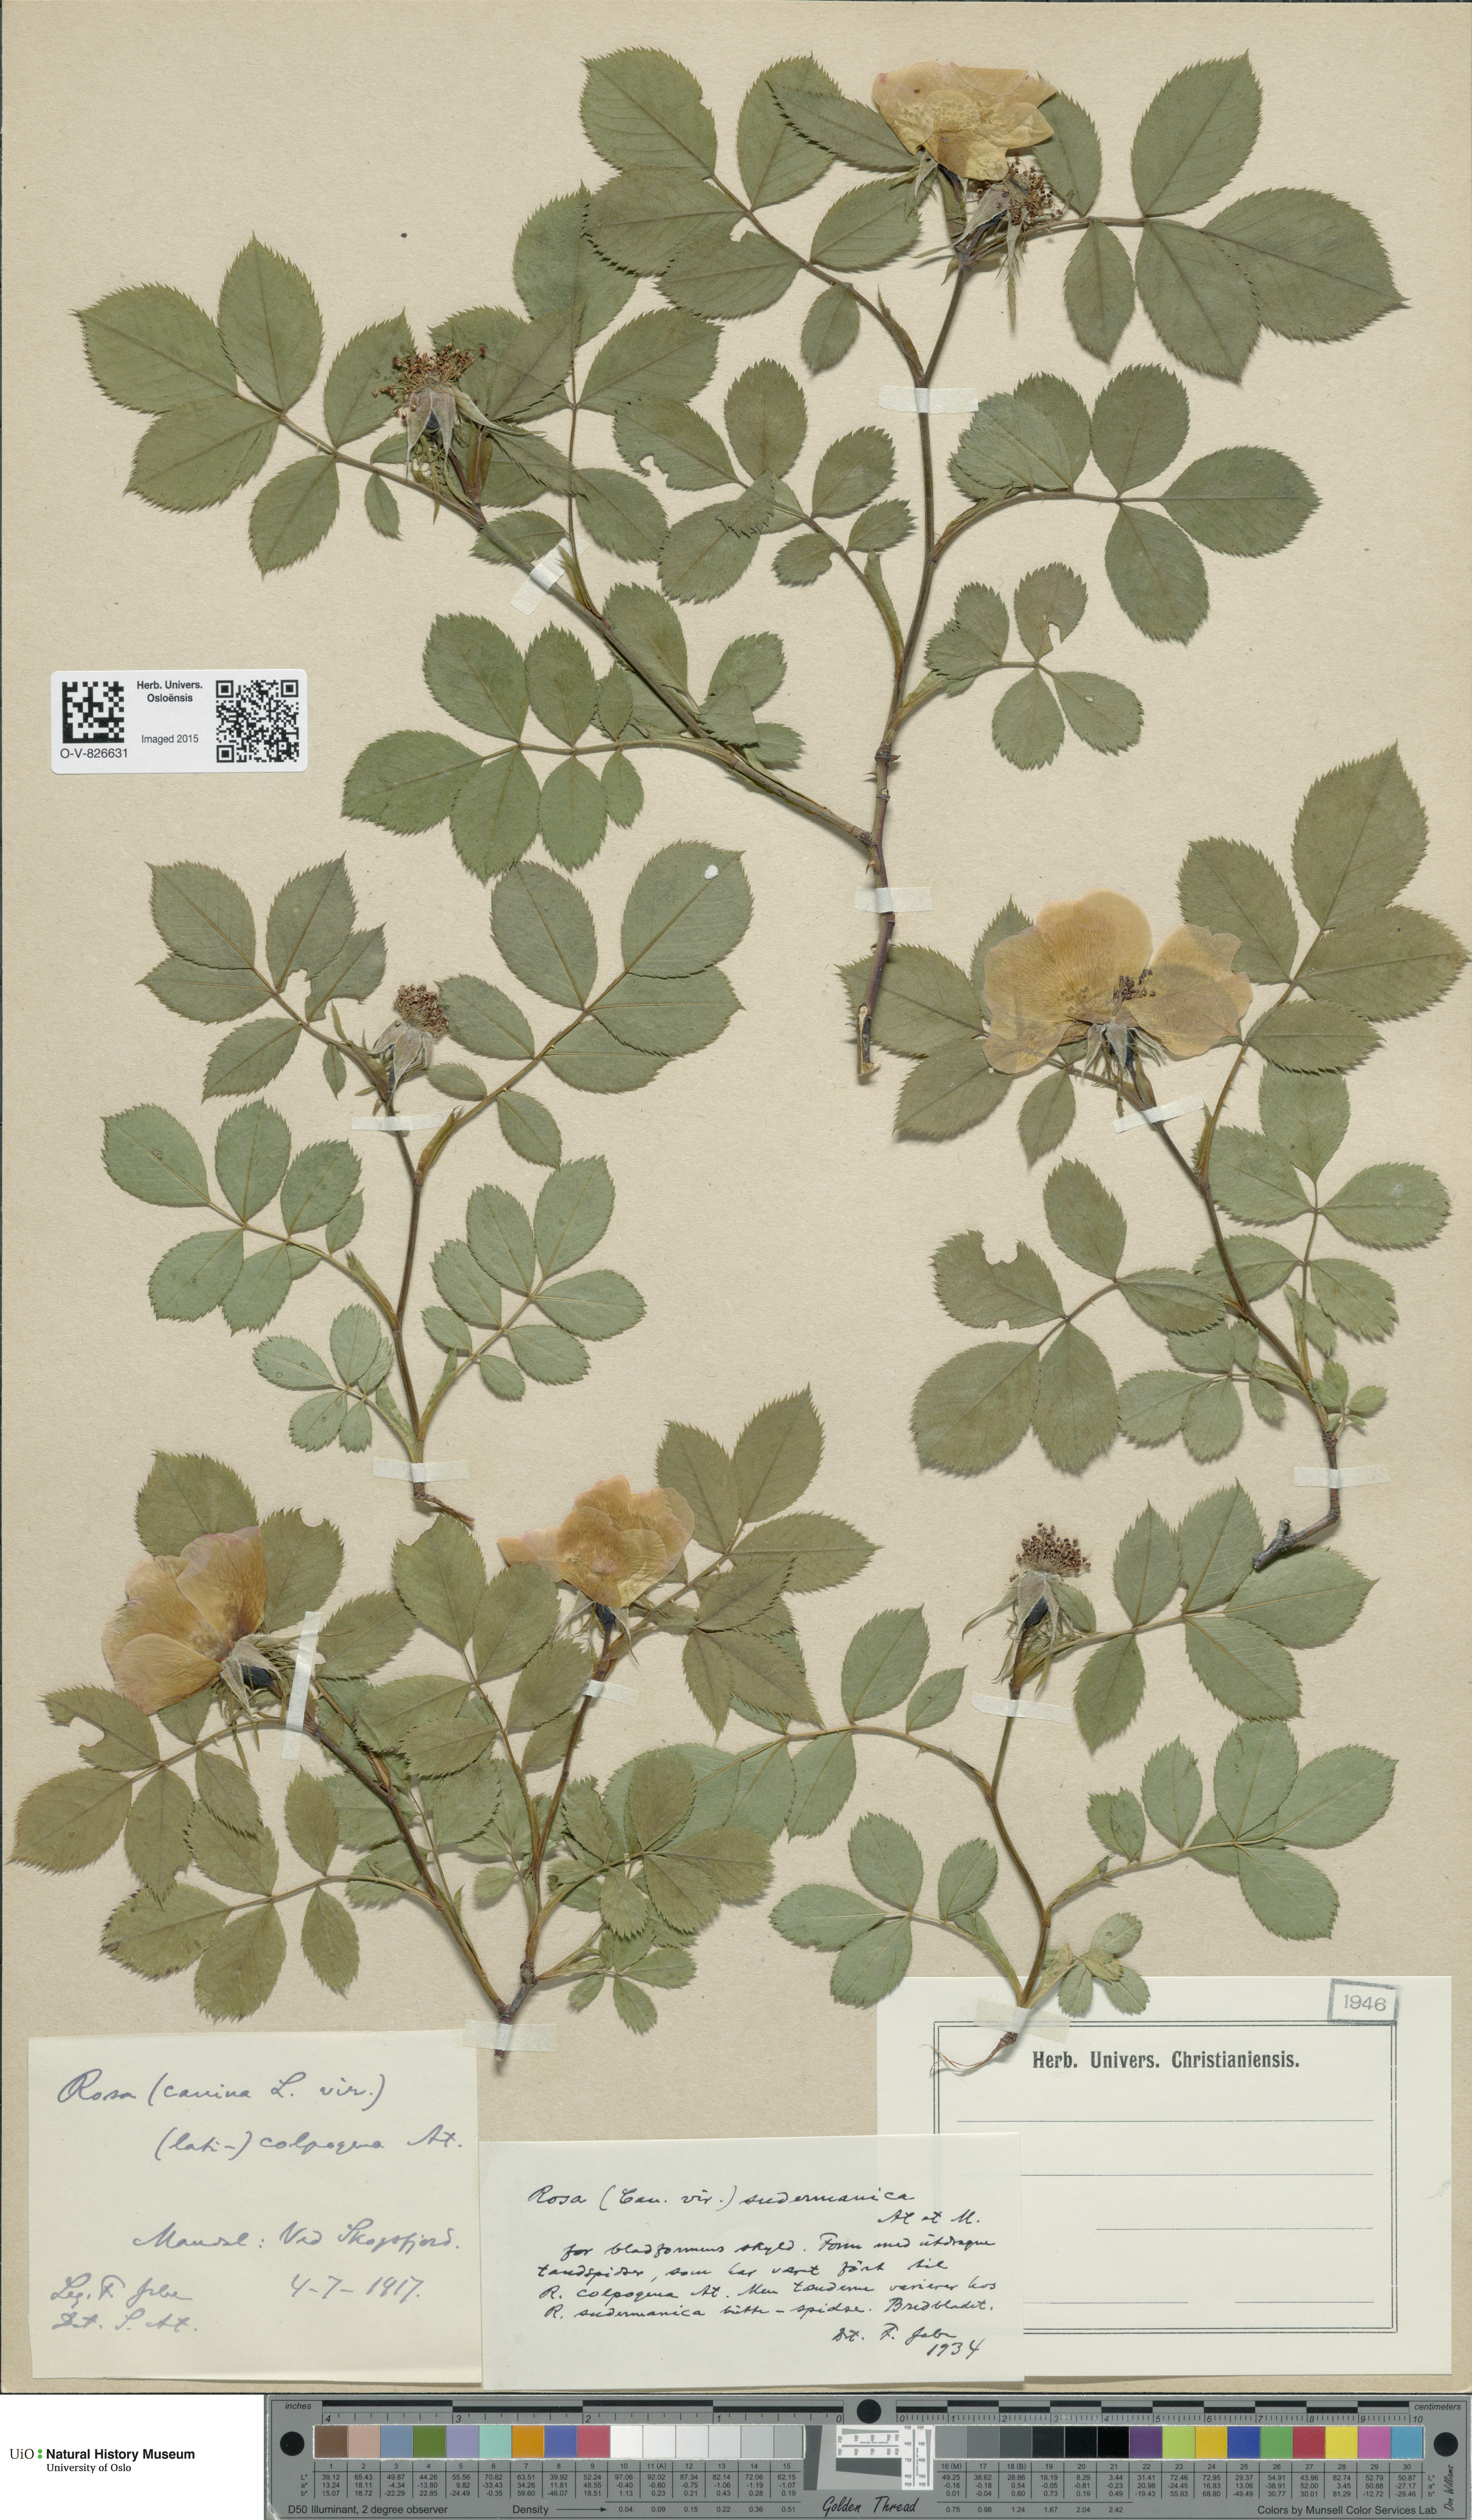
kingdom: Plantae
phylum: Tracheophyta
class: Magnoliopsida
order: Rosales
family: Rosaceae
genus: Rosa
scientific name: Rosa canina
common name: Dog rose
